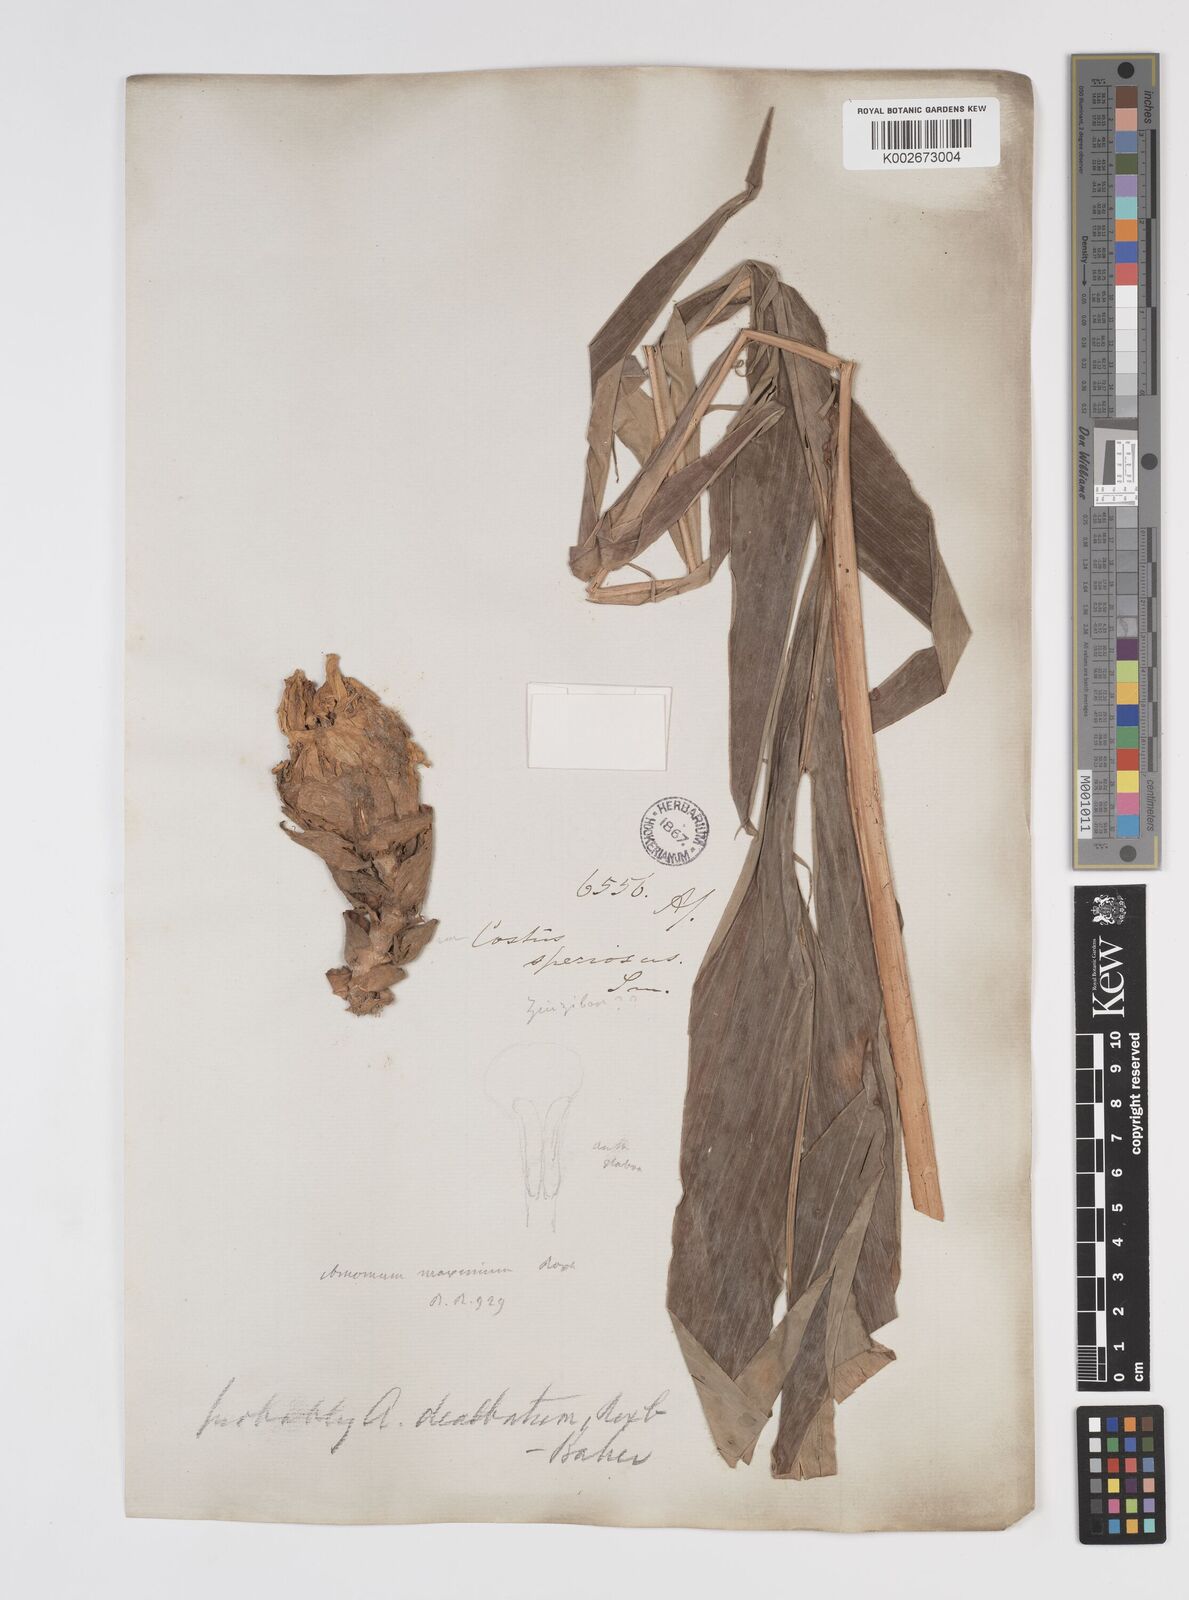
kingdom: Plantae
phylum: Tracheophyta
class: Liliopsida
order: Zingiberales
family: Zingiberaceae
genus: Amomum
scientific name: Amomum dealbatum
